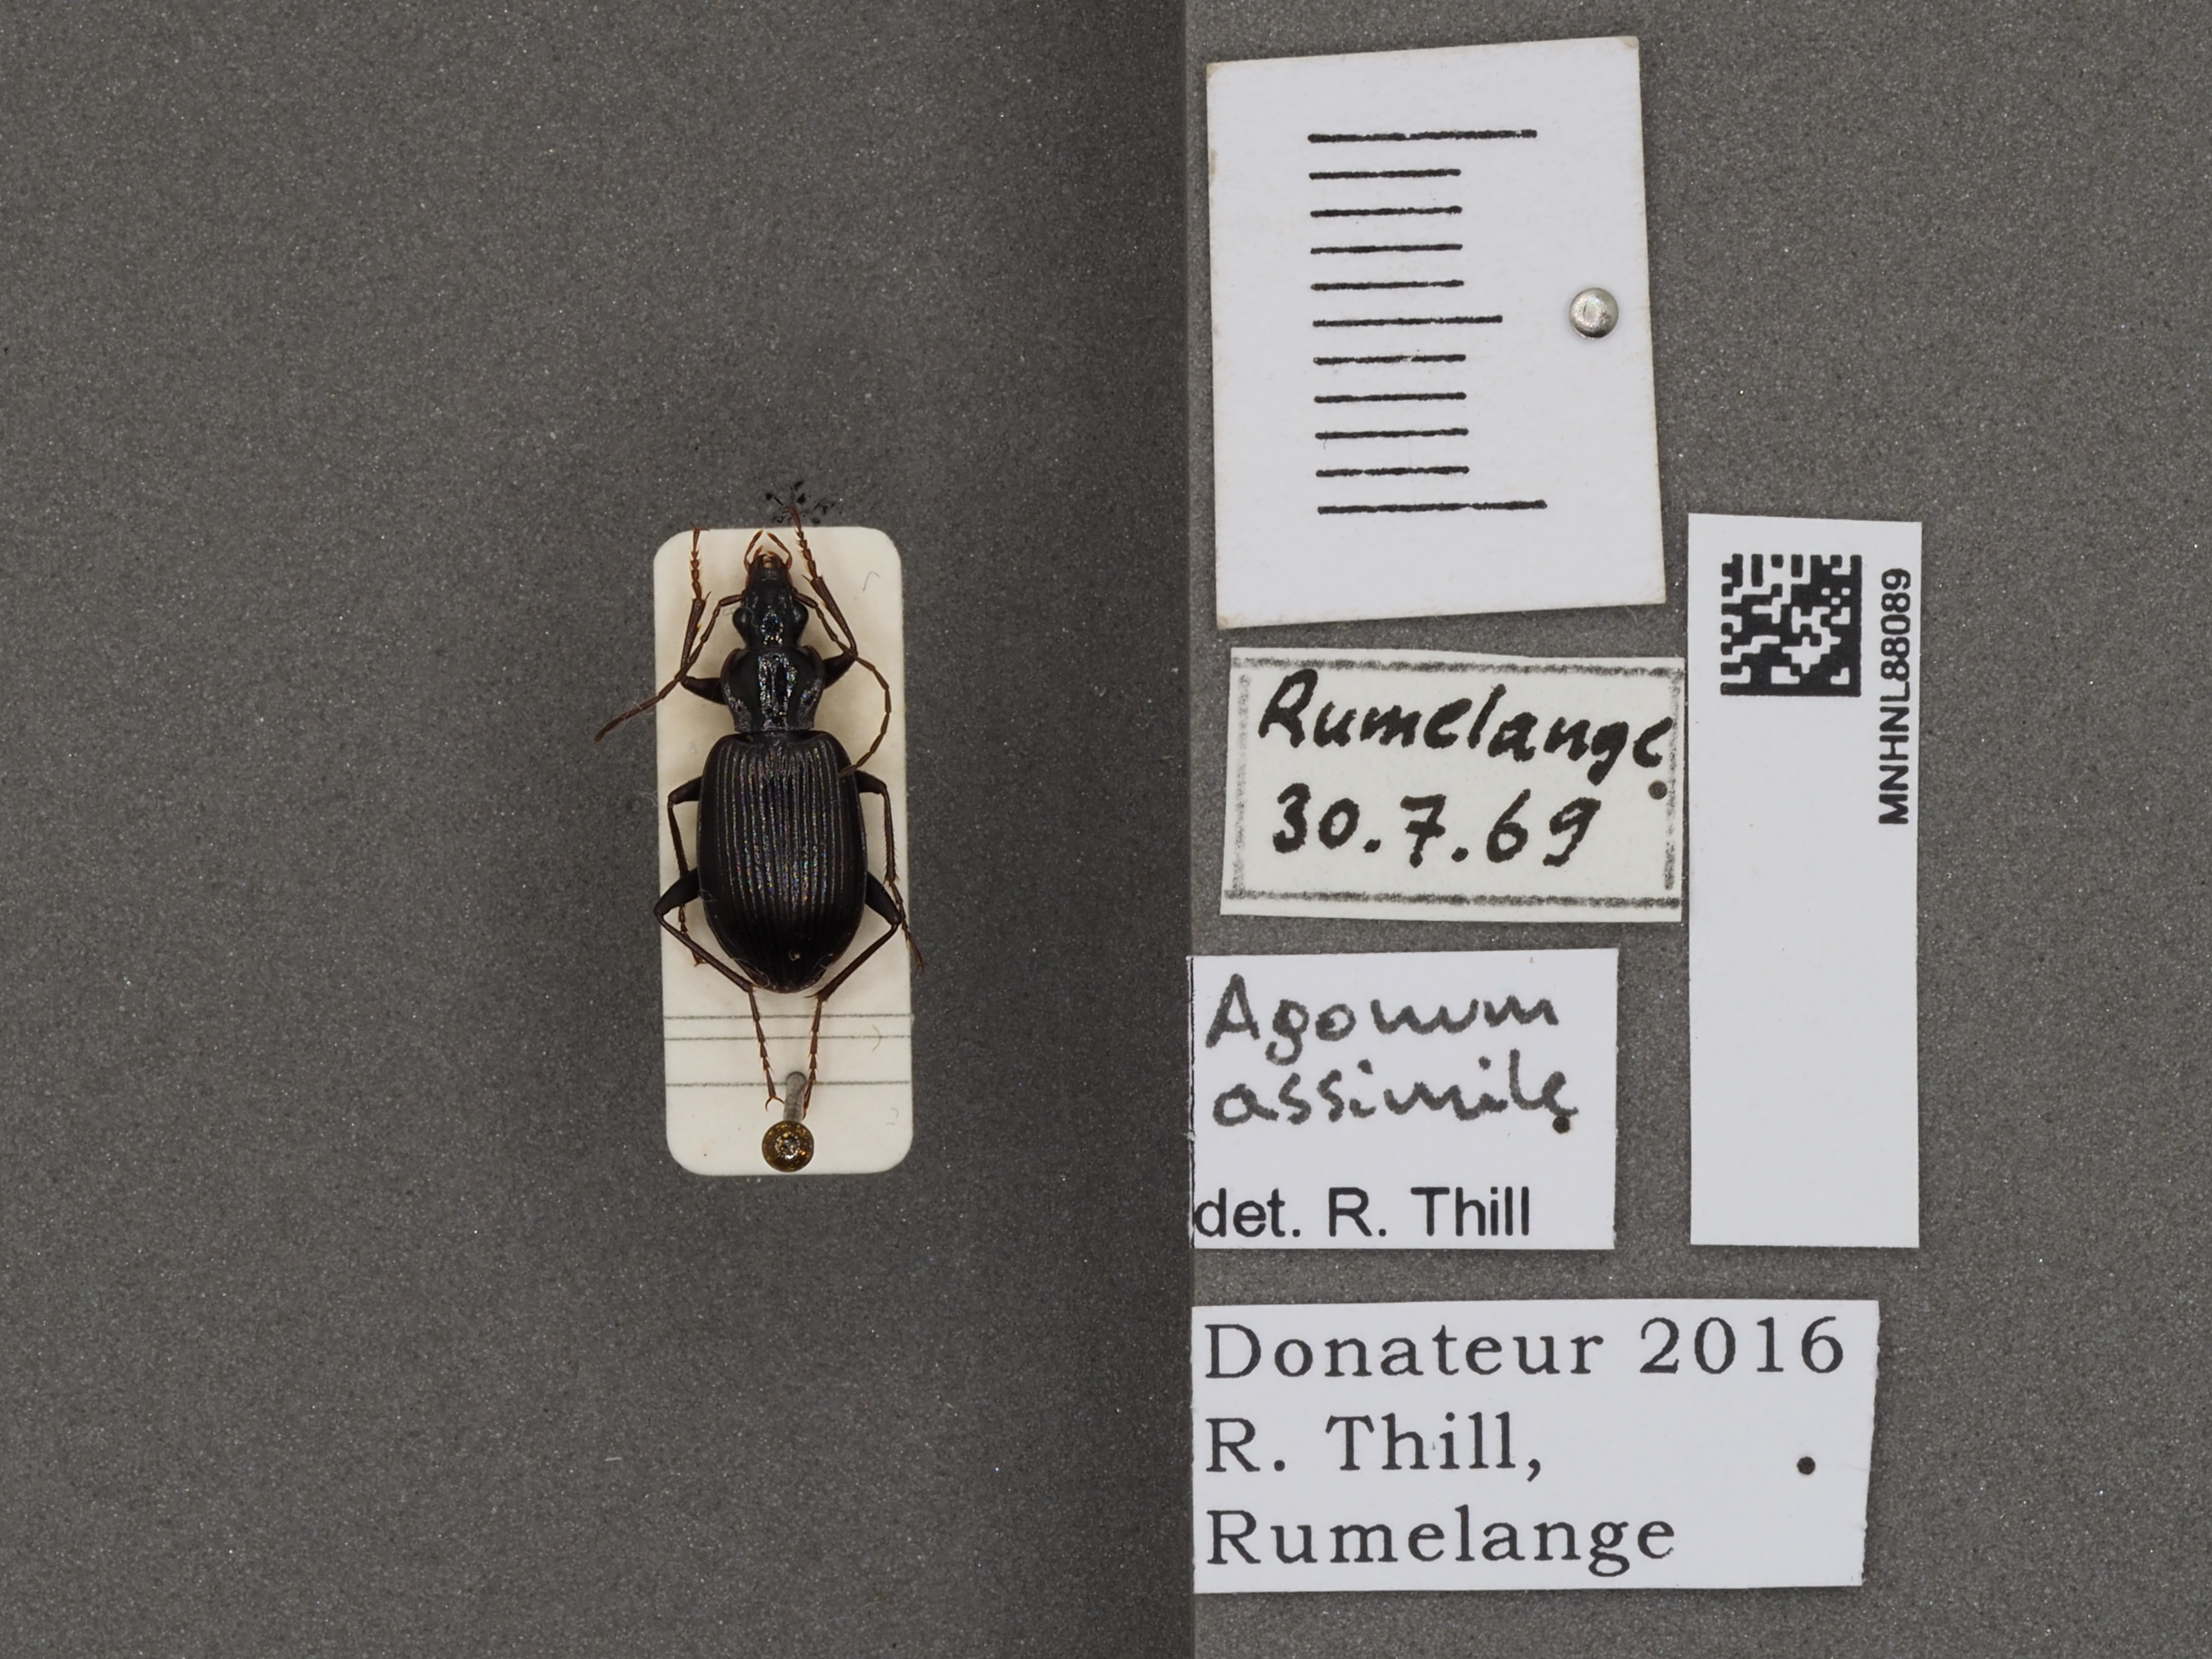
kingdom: Animalia
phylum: Arthropoda
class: Insecta
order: Coleoptera
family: Carabidae
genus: Platynus
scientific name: Platynus assimilis
